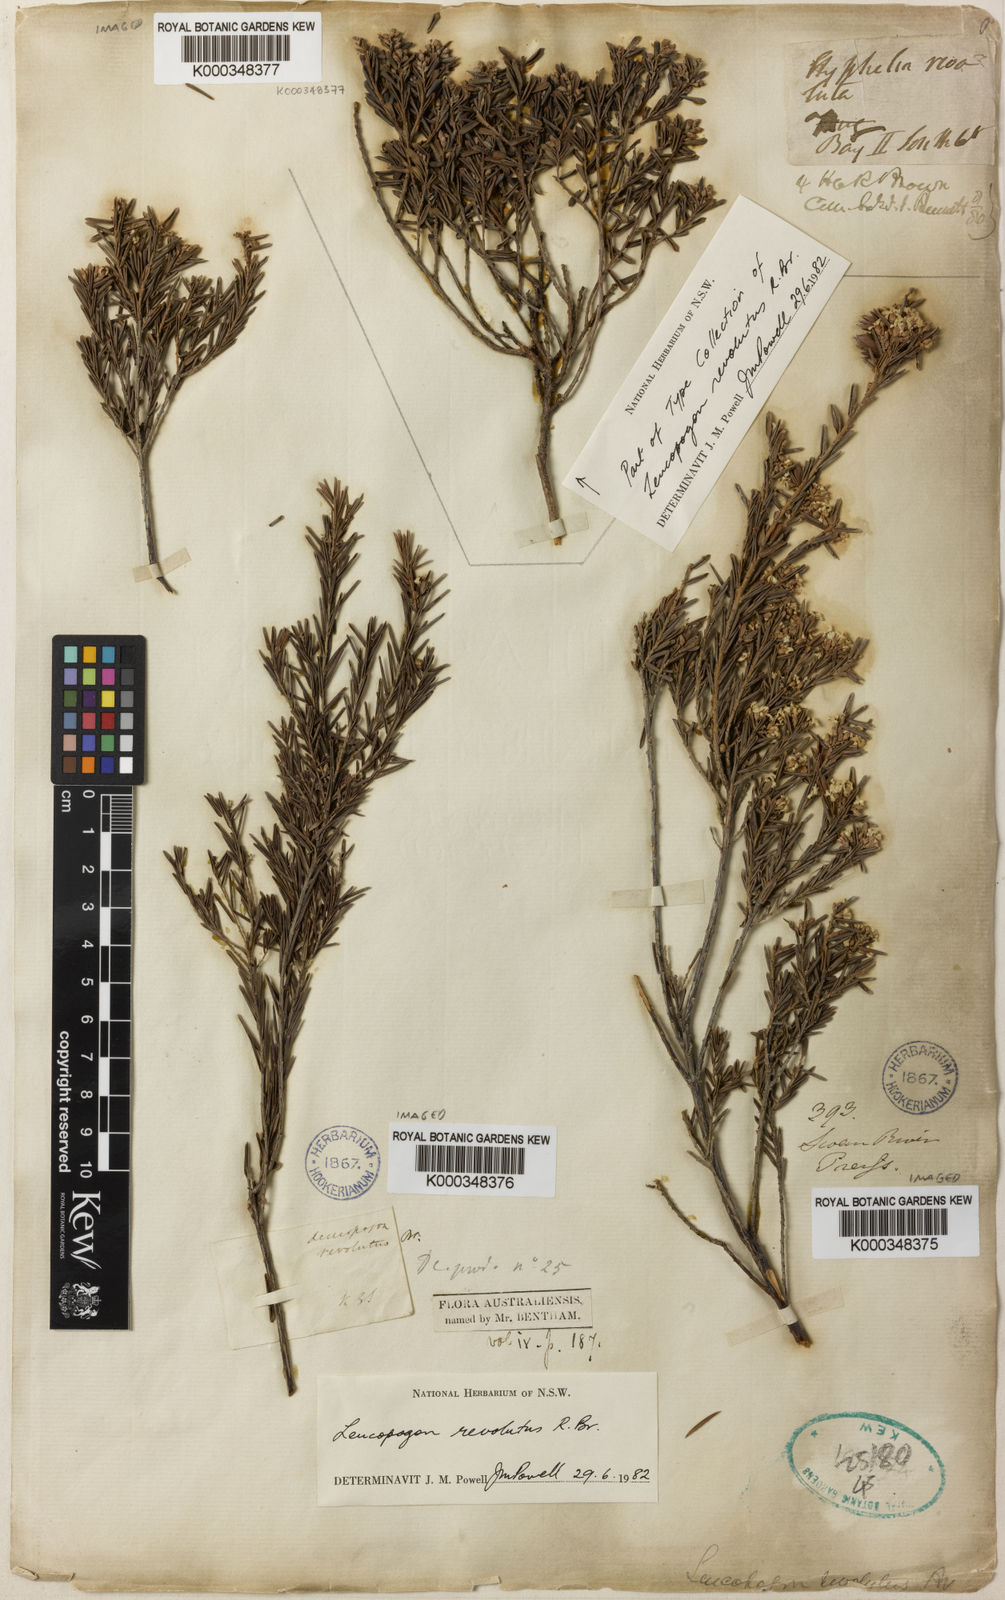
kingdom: Plantae
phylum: Tracheophyta
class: Magnoliopsida
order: Ericales
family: Ericaceae
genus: Leucopogon
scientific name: Leucopogon obovatus
